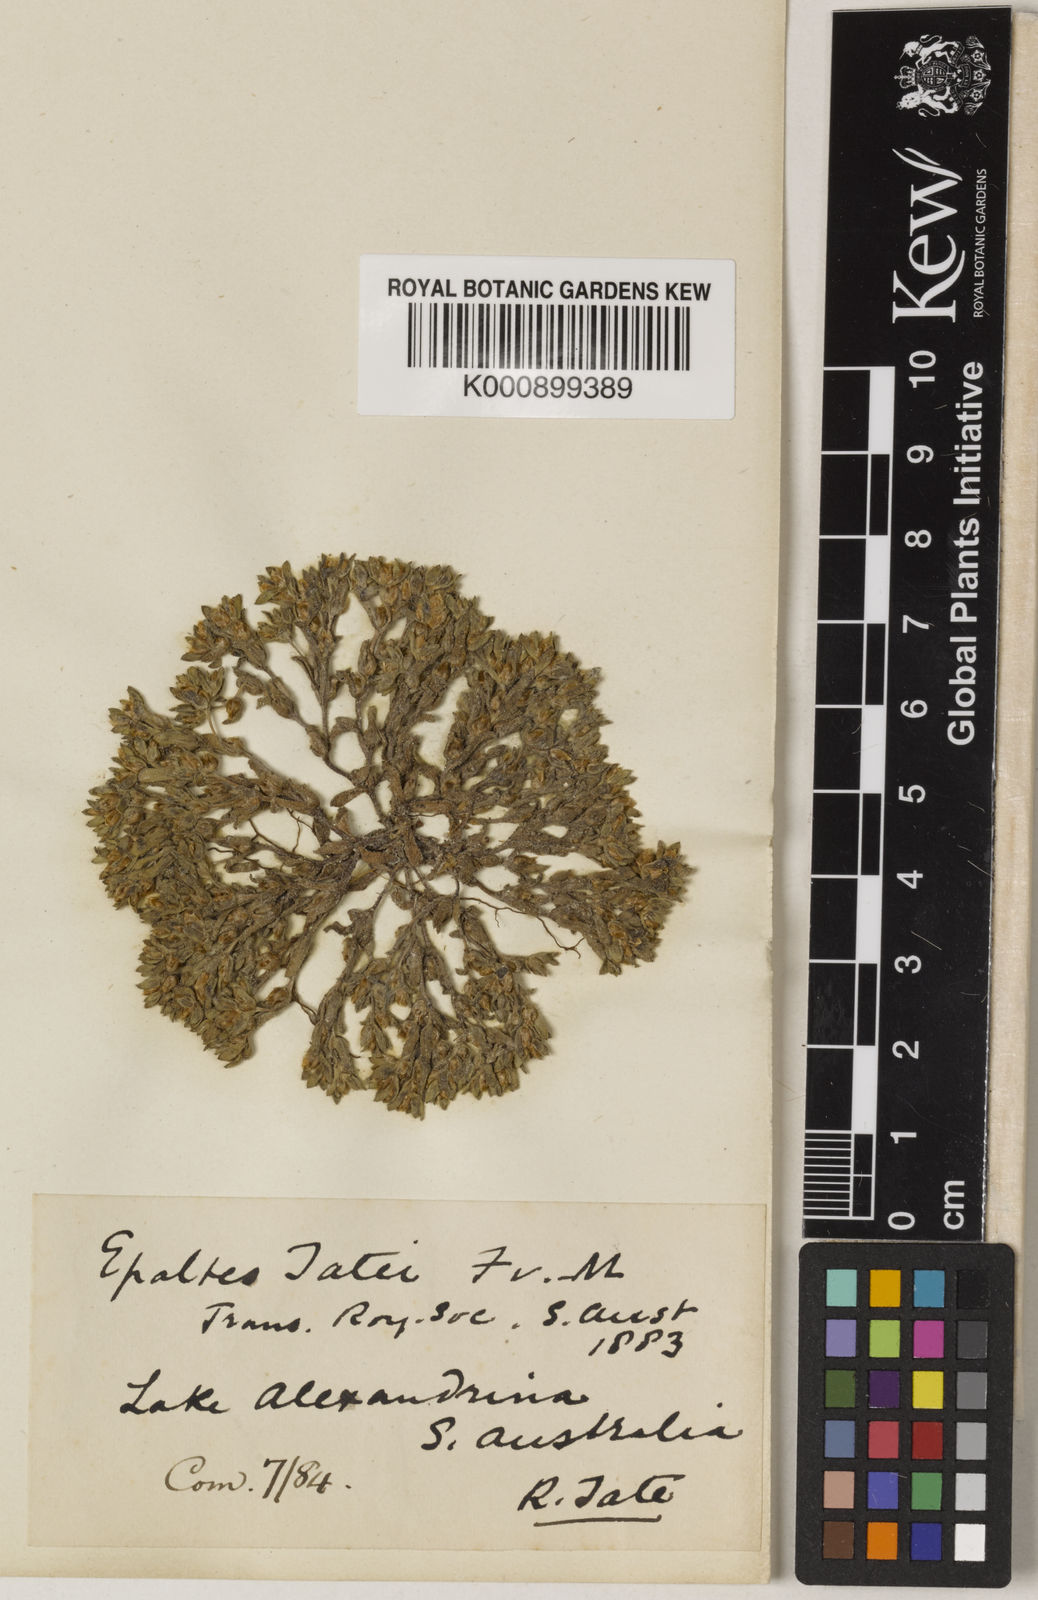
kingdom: Plantae
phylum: Tracheophyta
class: Magnoliopsida
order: Asterales
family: Asteraceae
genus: Haegiela
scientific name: Haegiela
